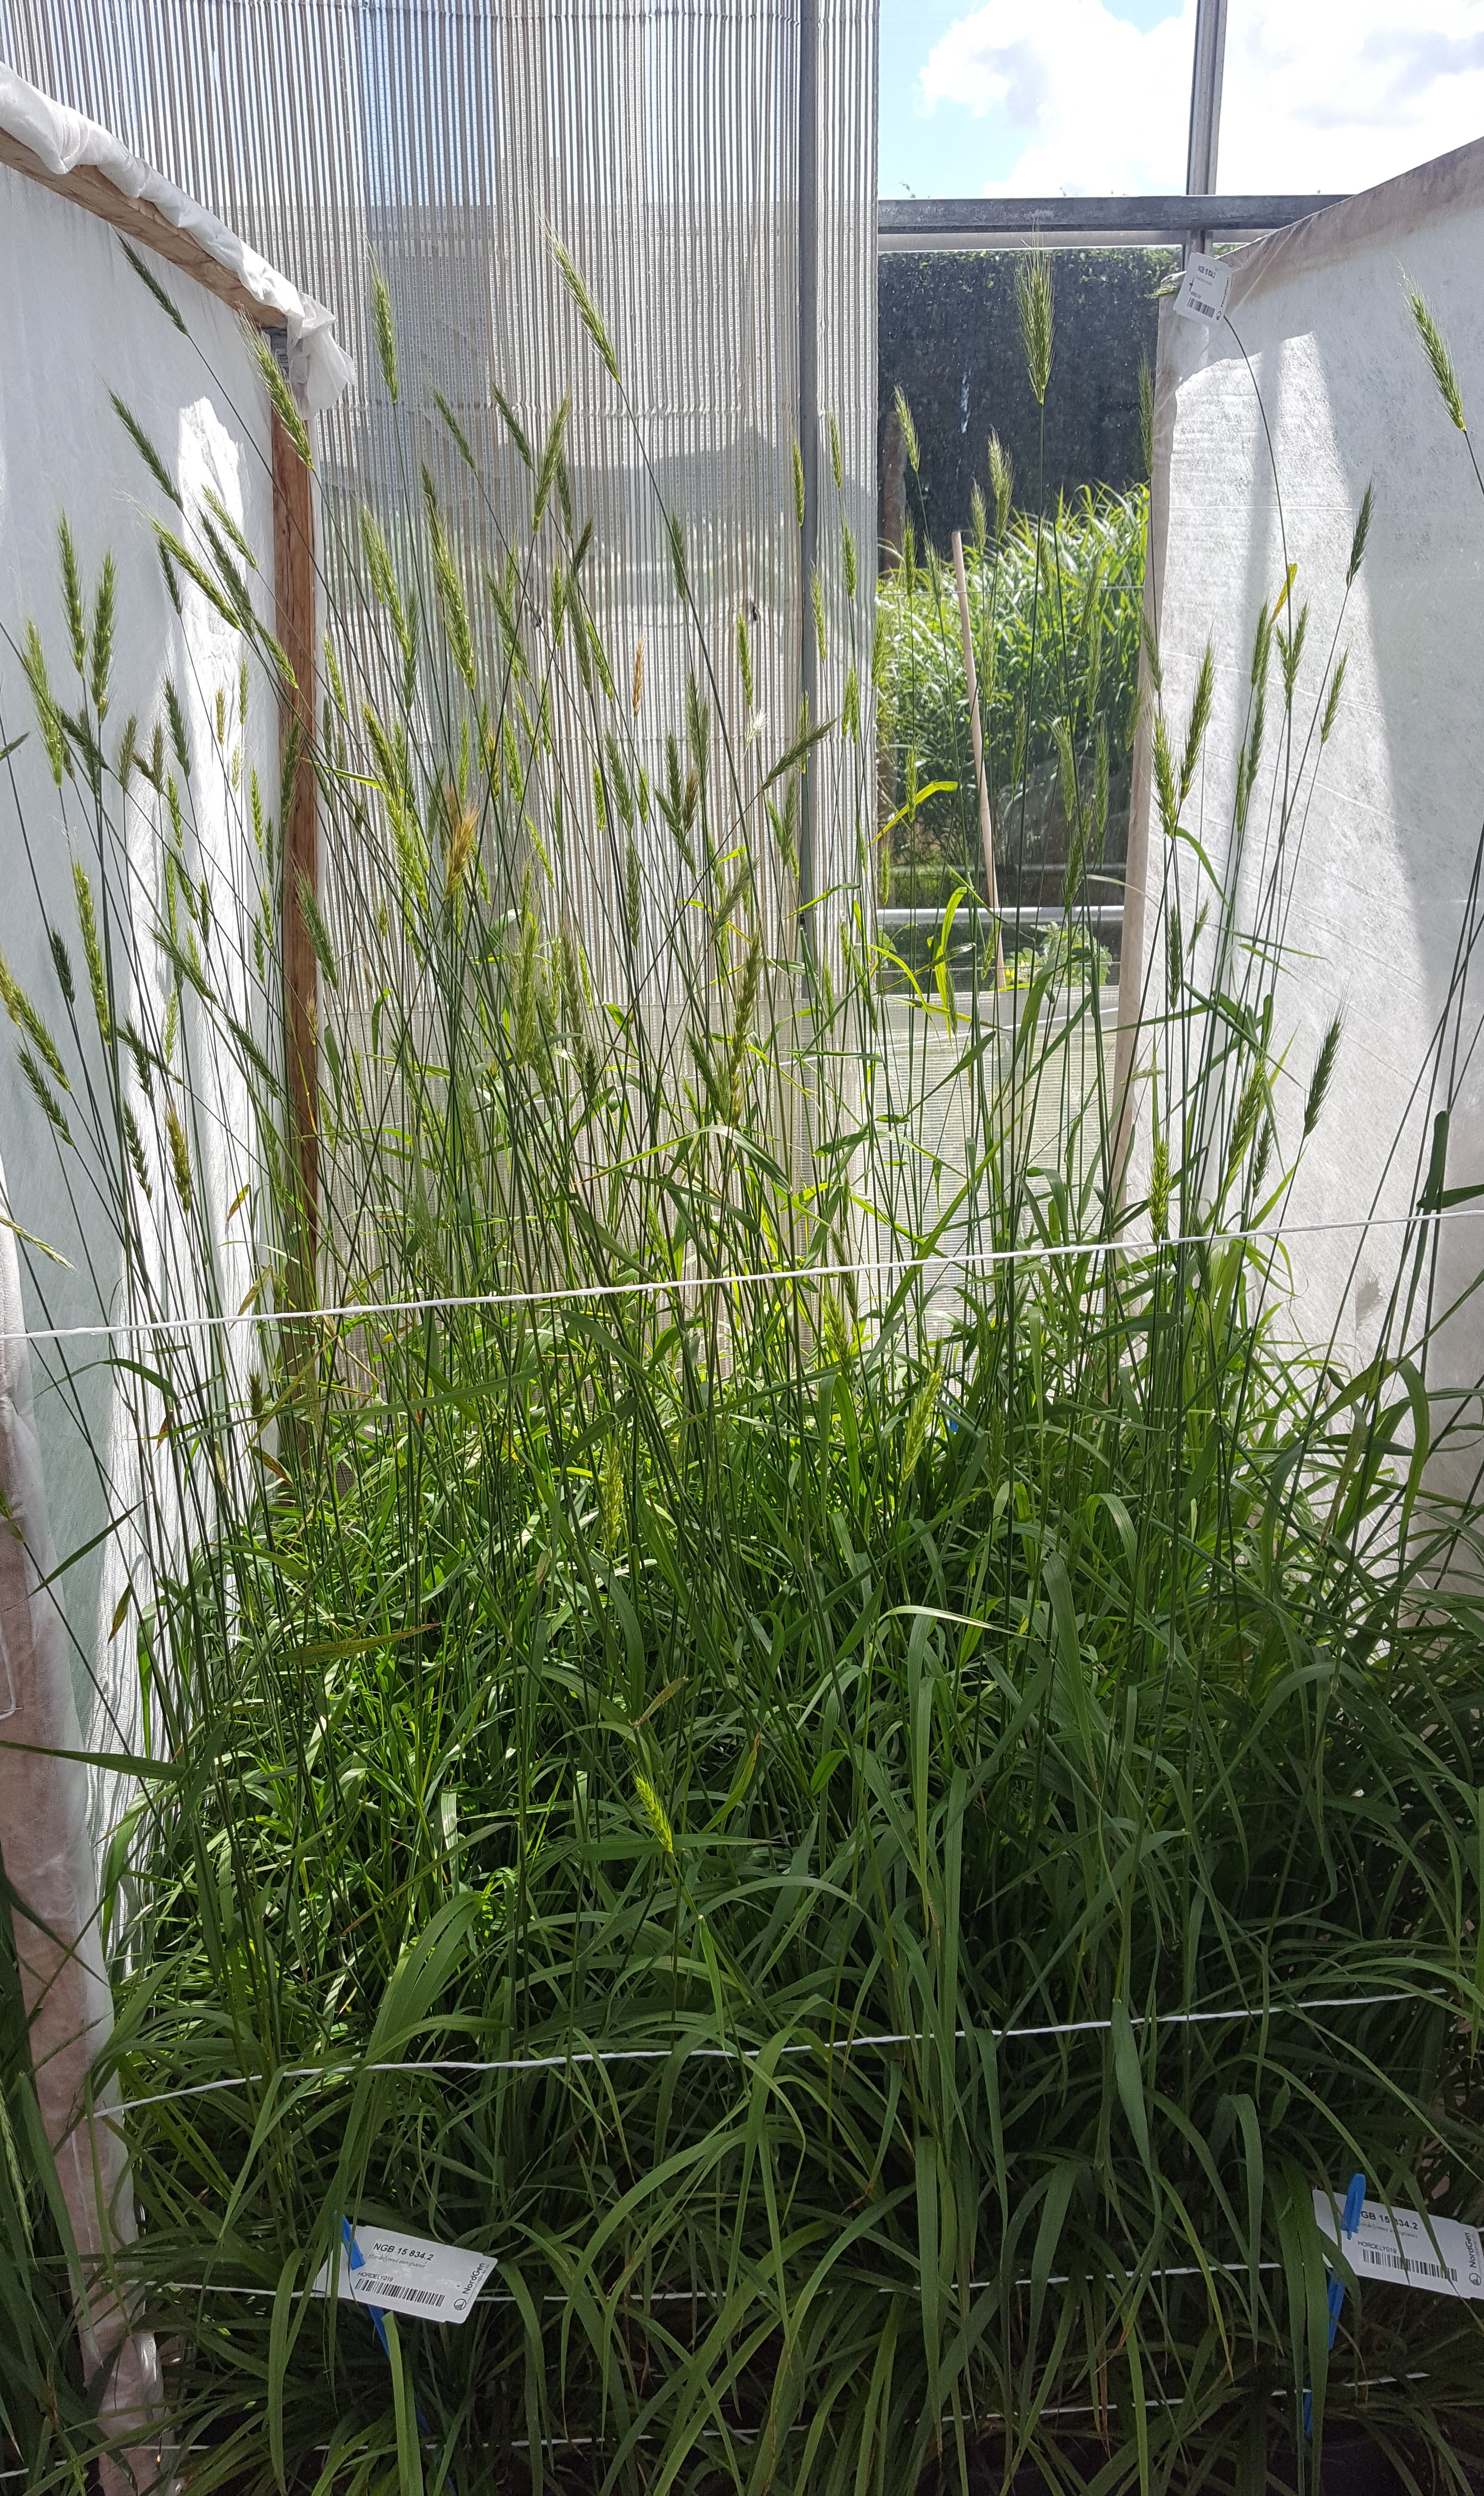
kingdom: Plantae
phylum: Tracheophyta
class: Liliopsida
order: Poales
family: Poaceae
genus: Hordelymus
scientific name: Hordelymus europaeus
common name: Wood-barley
